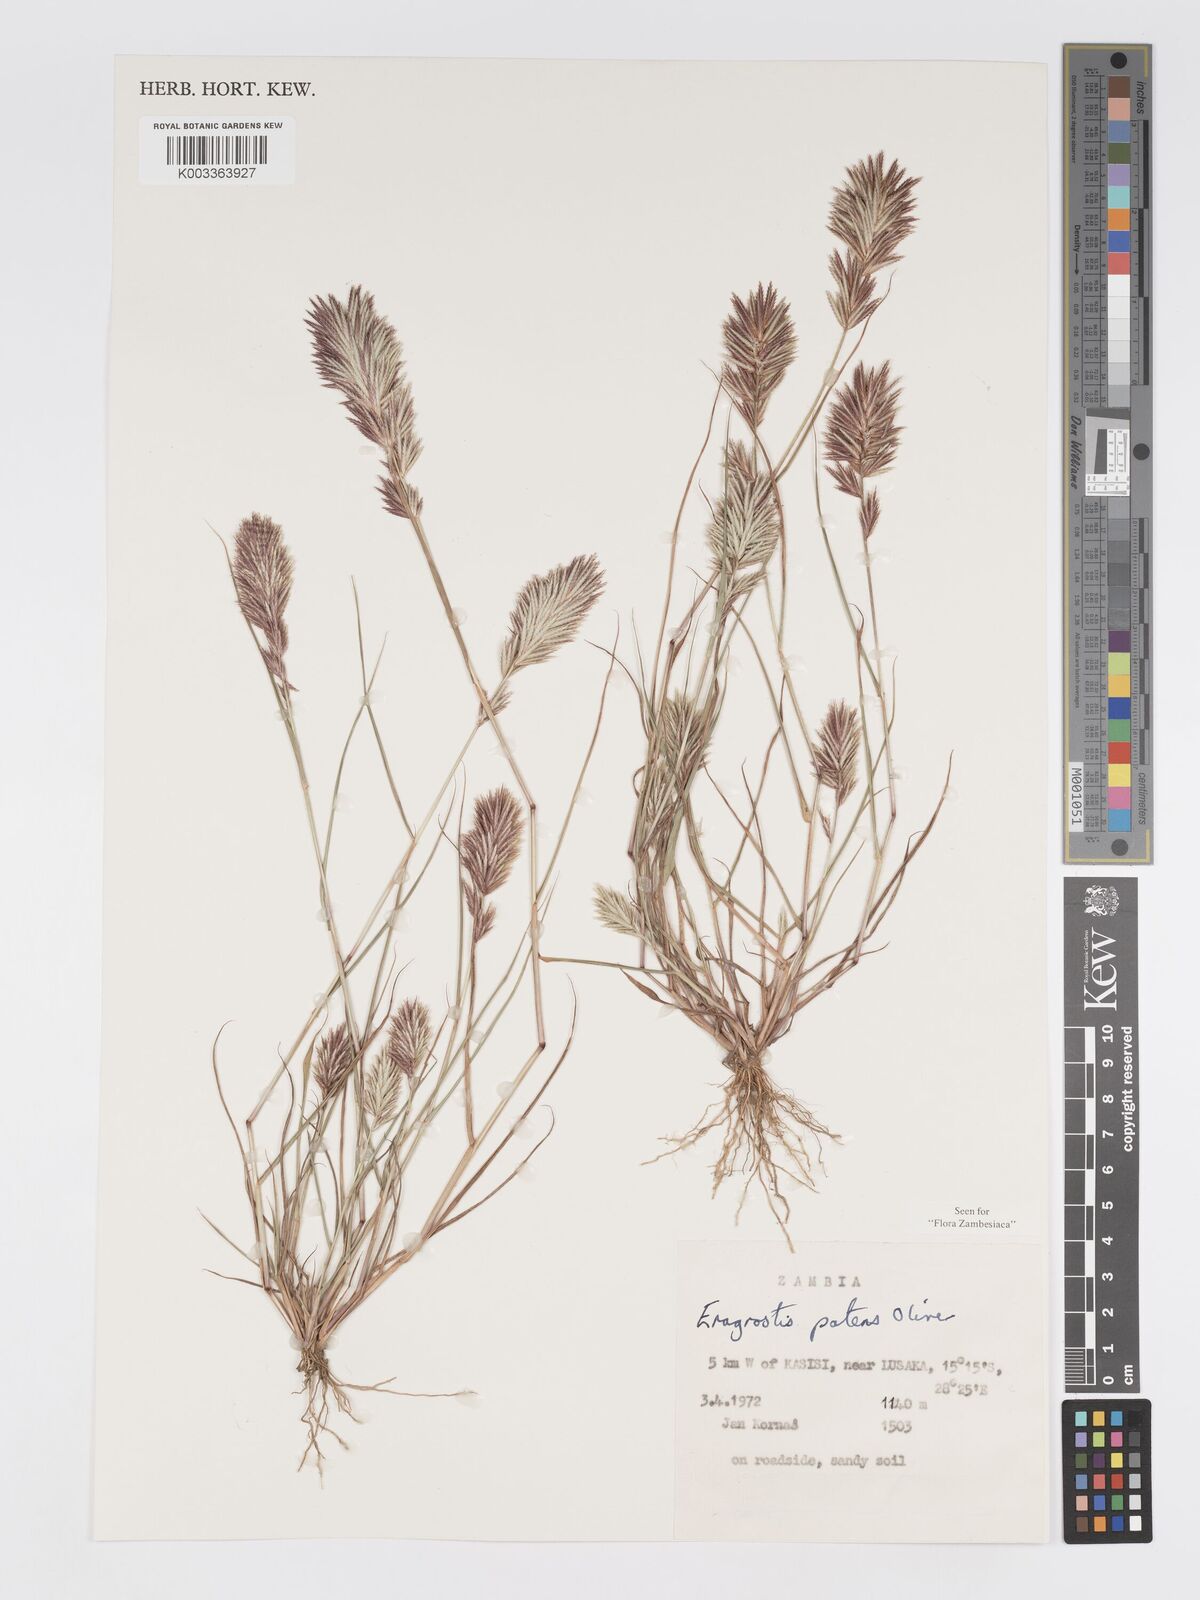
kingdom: Plantae
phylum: Tracheophyta
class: Liliopsida
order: Poales
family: Poaceae
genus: Eragrostis
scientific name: Eragrostis patens
